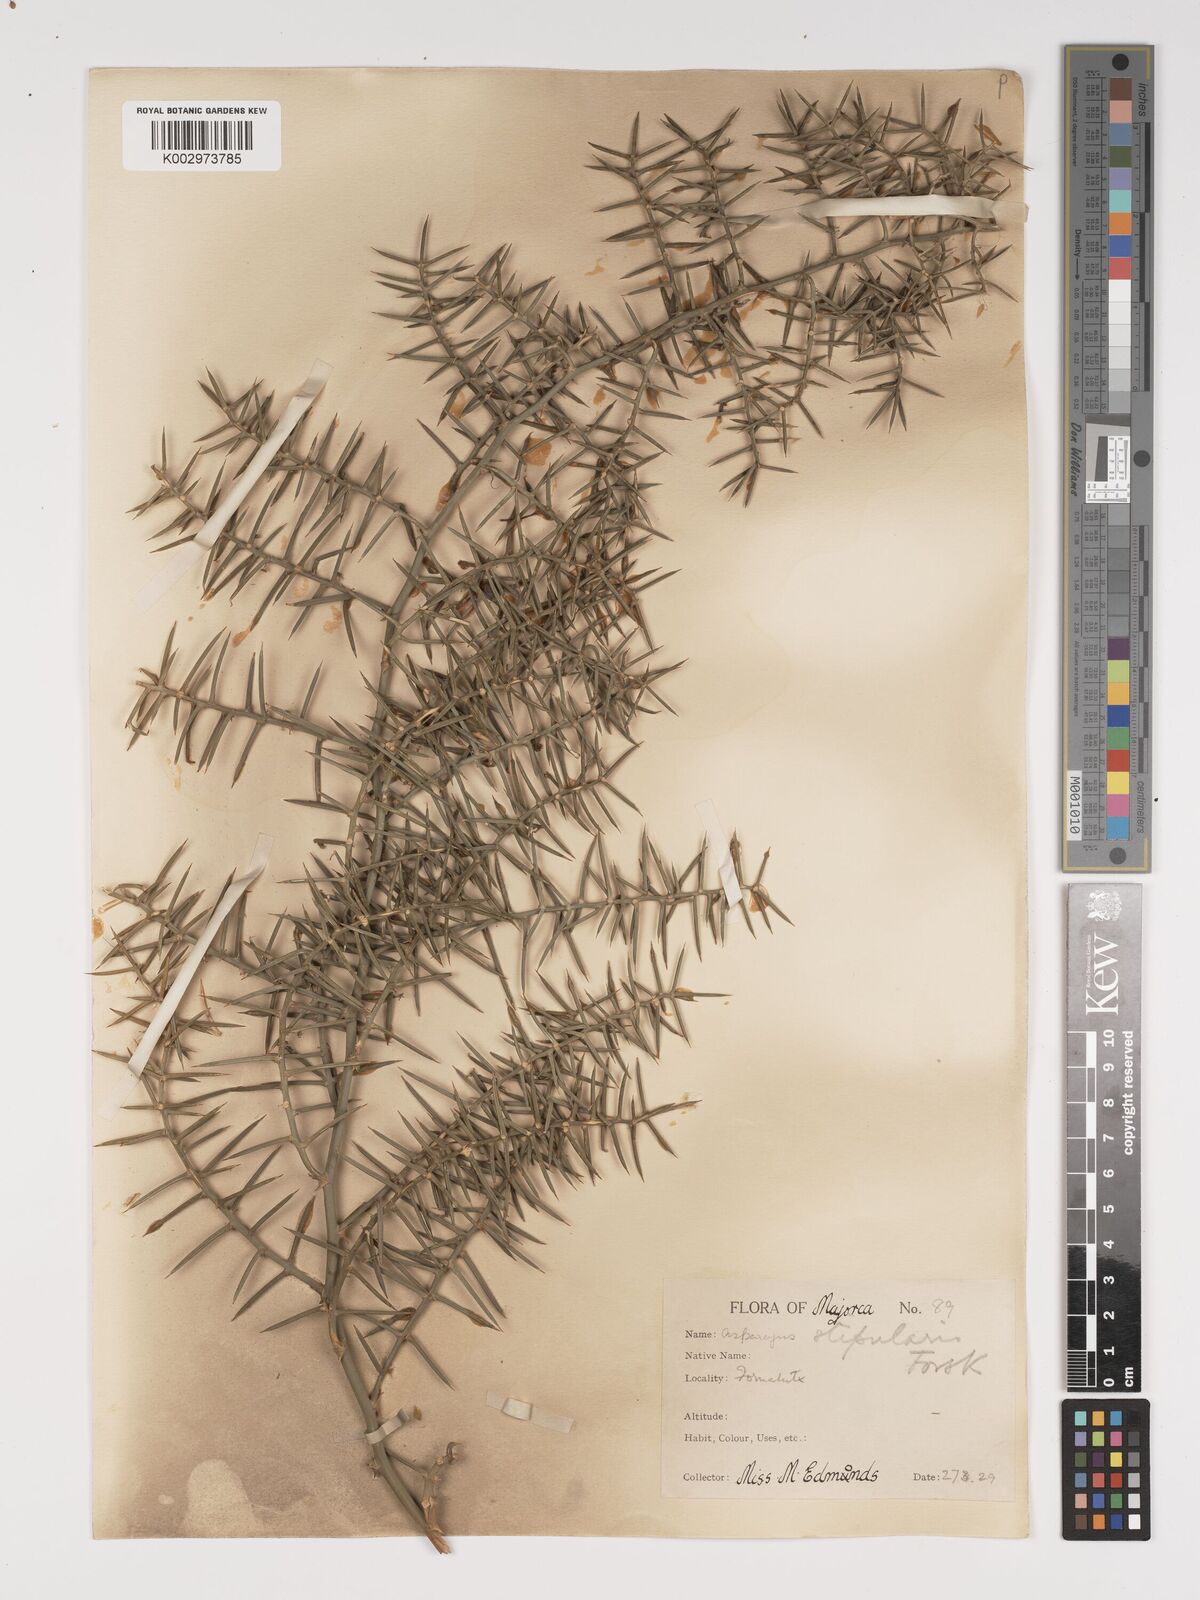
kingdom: Plantae
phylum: Tracheophyta
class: Liliopsida
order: Asparagales
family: Asparagaceae
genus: Asparagus
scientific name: Asparagus horridus
